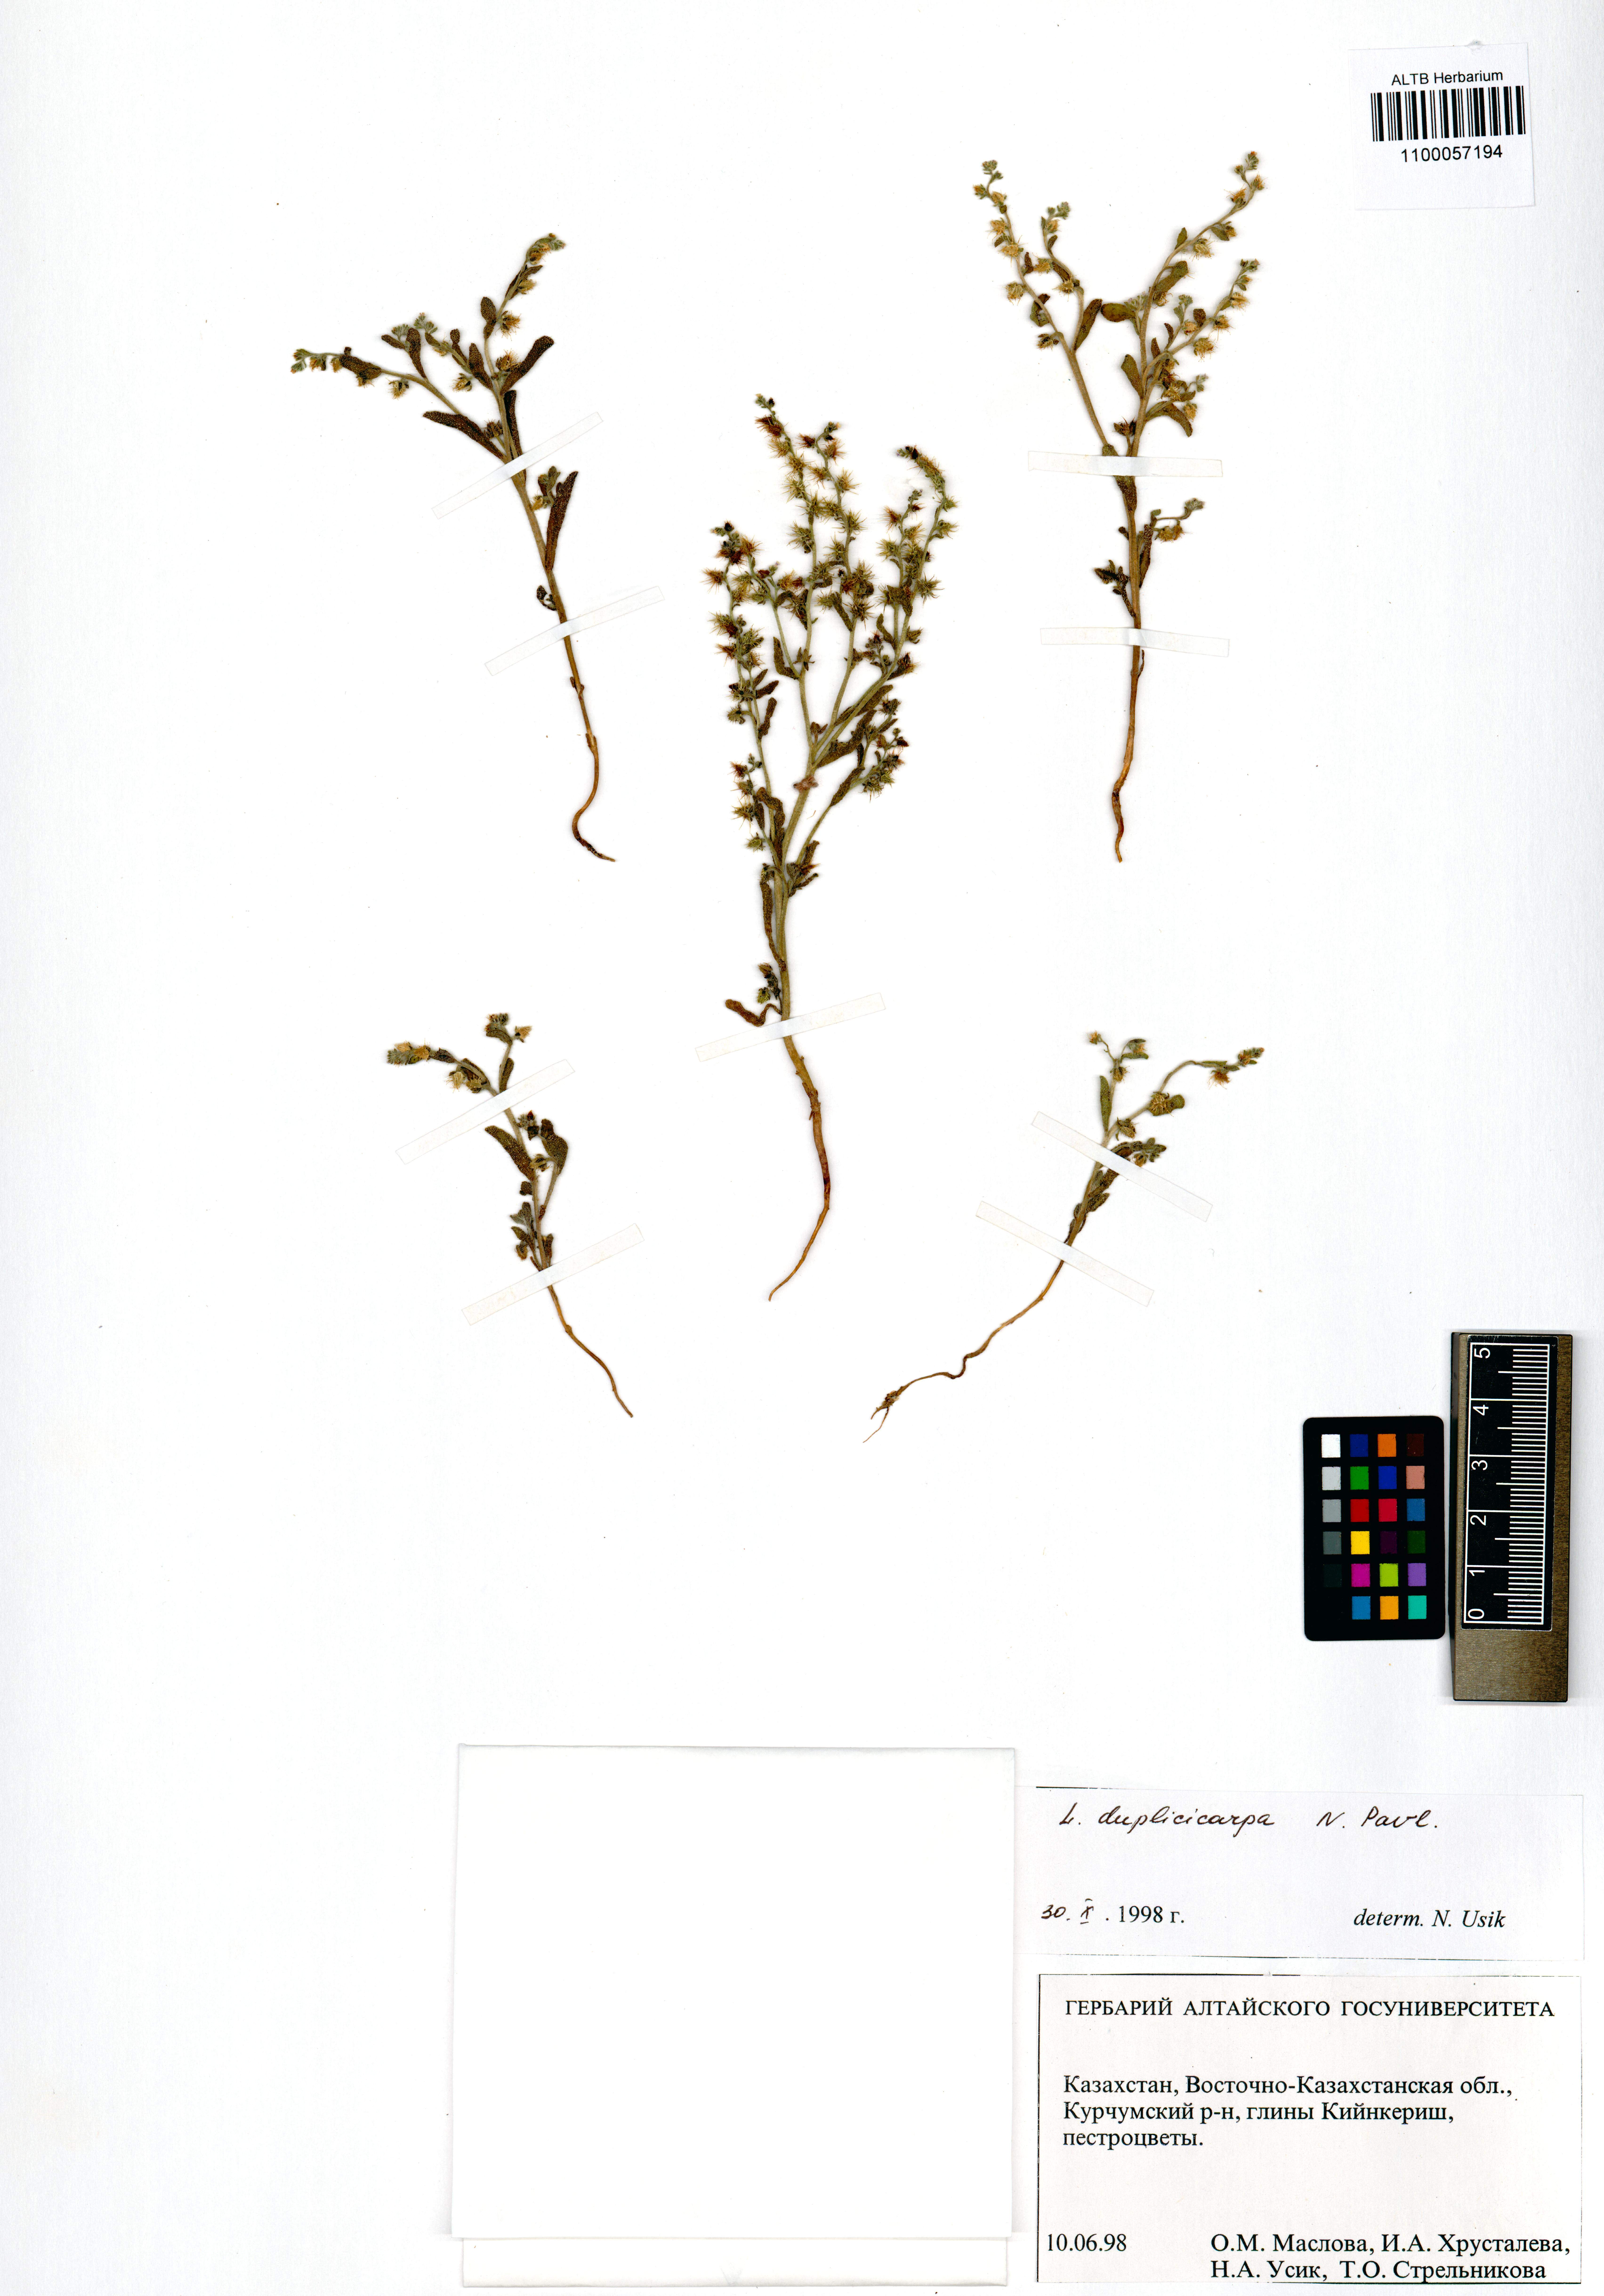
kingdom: Plantae
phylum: Tracheophyta
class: Magnoliopsida
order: Boraginales
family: Boraginaceae
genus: Lappula
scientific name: Lappula duplicicarpa
